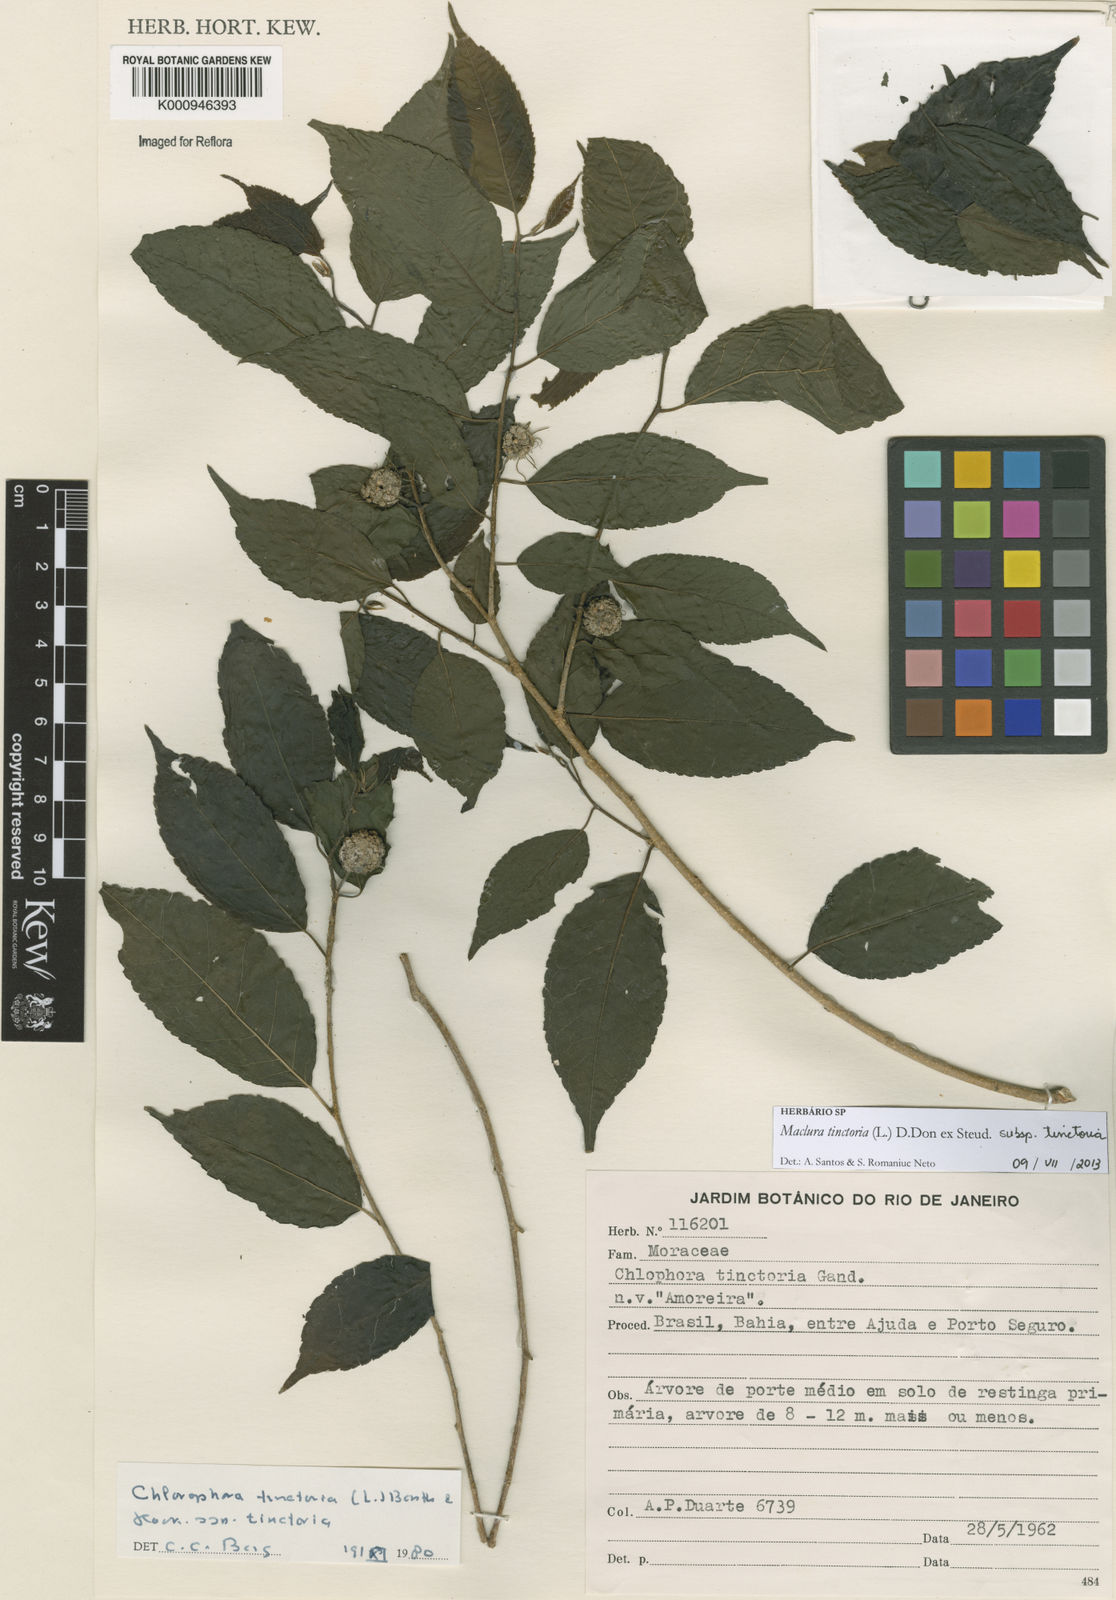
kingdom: Plantae
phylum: Tracheophyta
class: Magnoliopsida
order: Rosales
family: Moraceae
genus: Maclura
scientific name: Maclura
